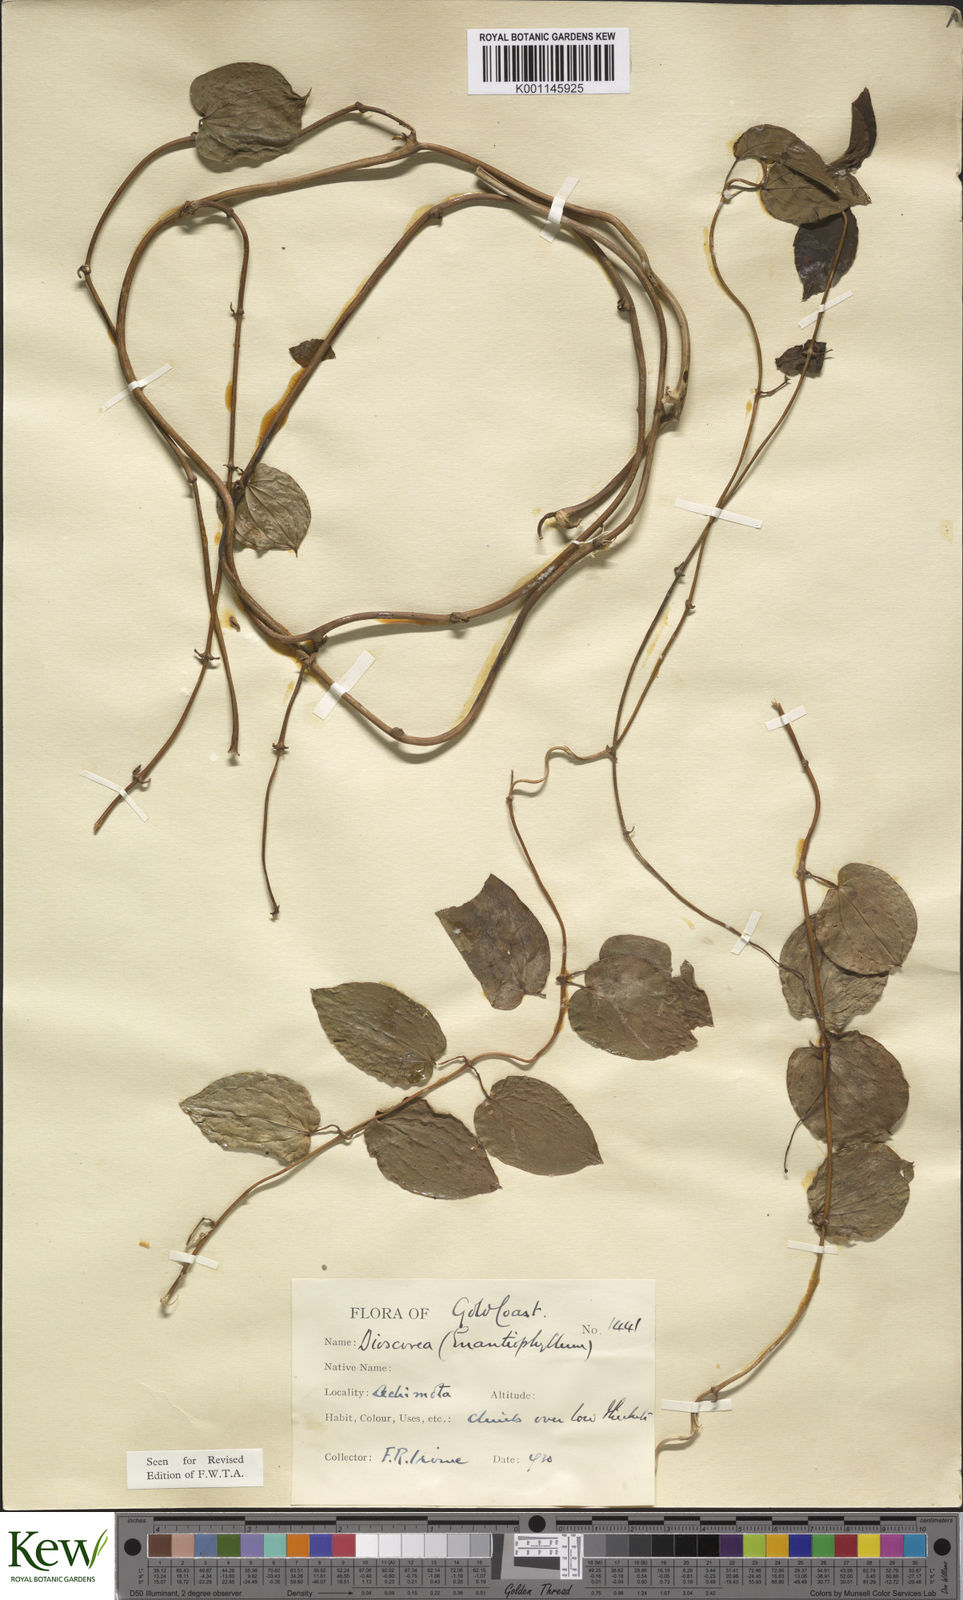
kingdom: Plantae
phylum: Tracheophyta
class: Liliopsida
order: Dioscoreales
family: Dioscoreaceae
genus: Dioscorea
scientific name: Dioscorea togoensis
